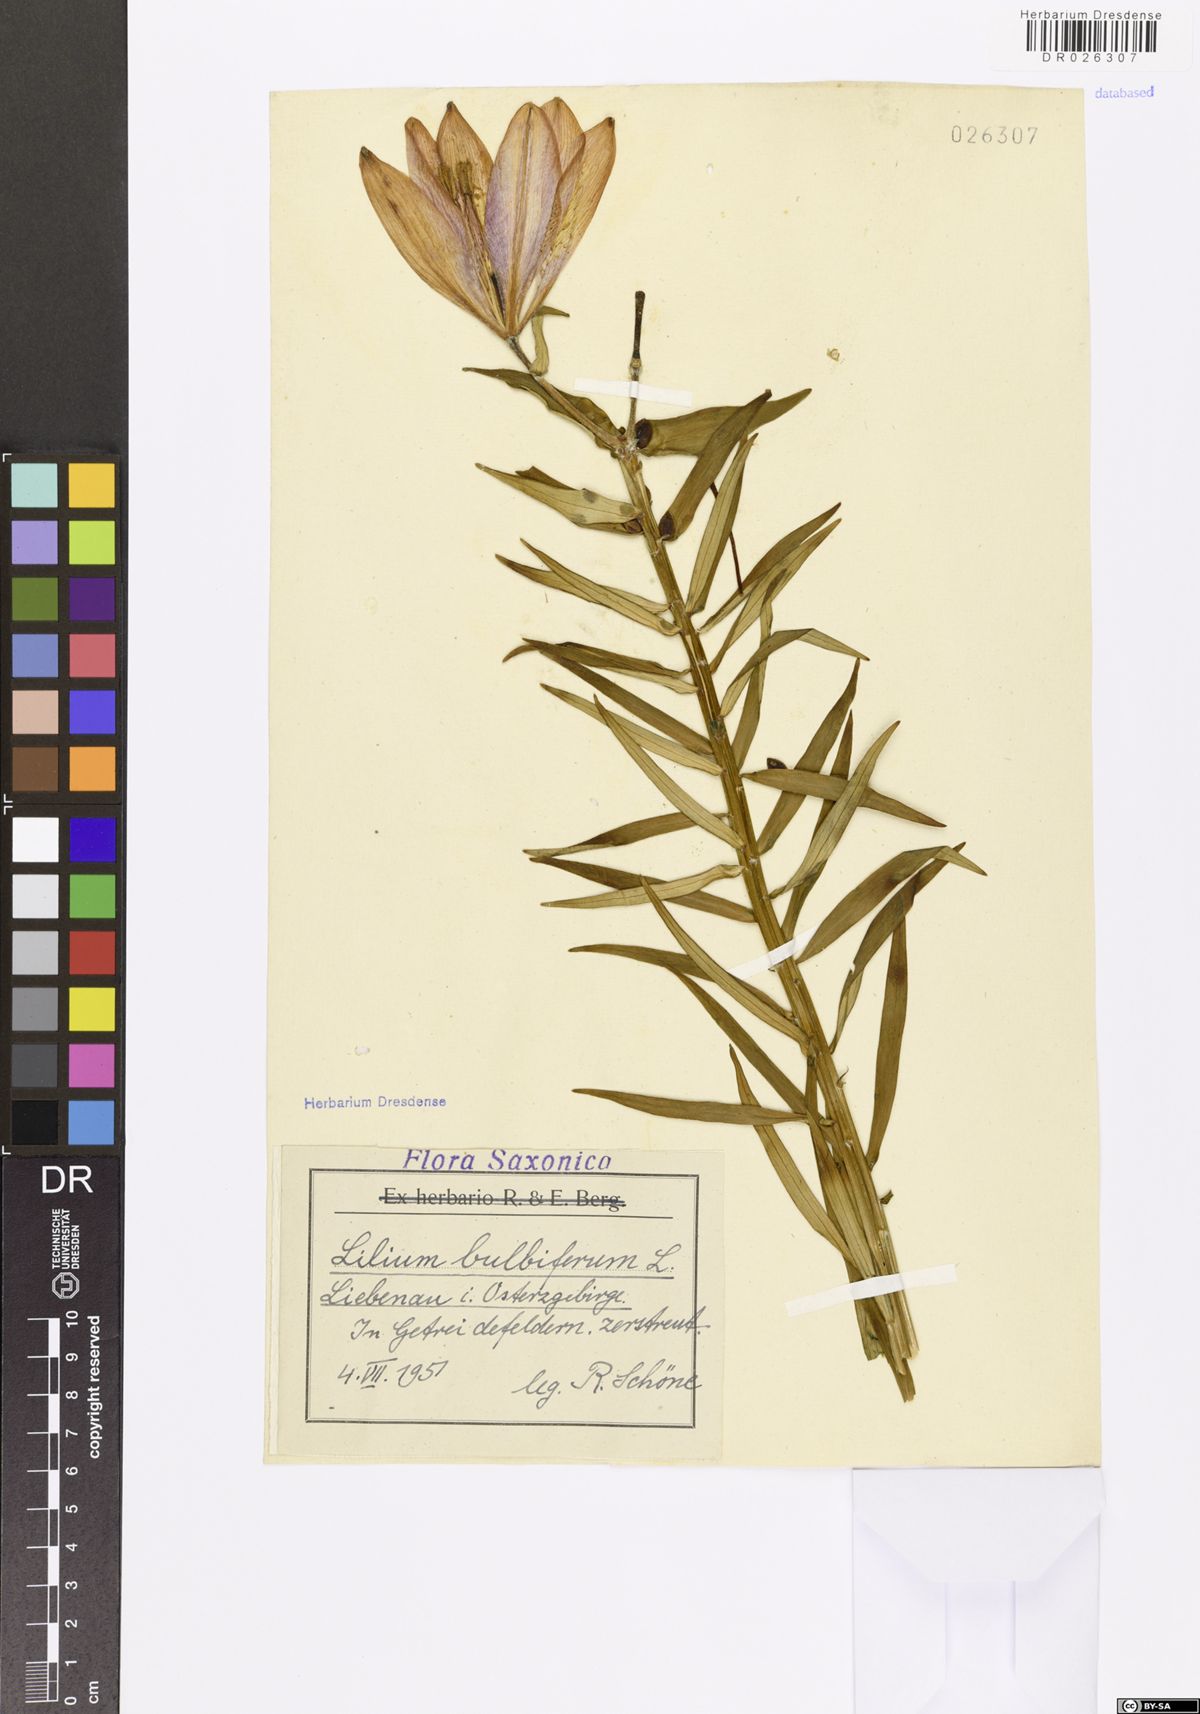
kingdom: Plantae
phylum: Tracheophyta
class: Liliopsida
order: Liliales
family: Liliaceae
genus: Lilium
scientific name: Lilium bulbiferum
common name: Orange lily
